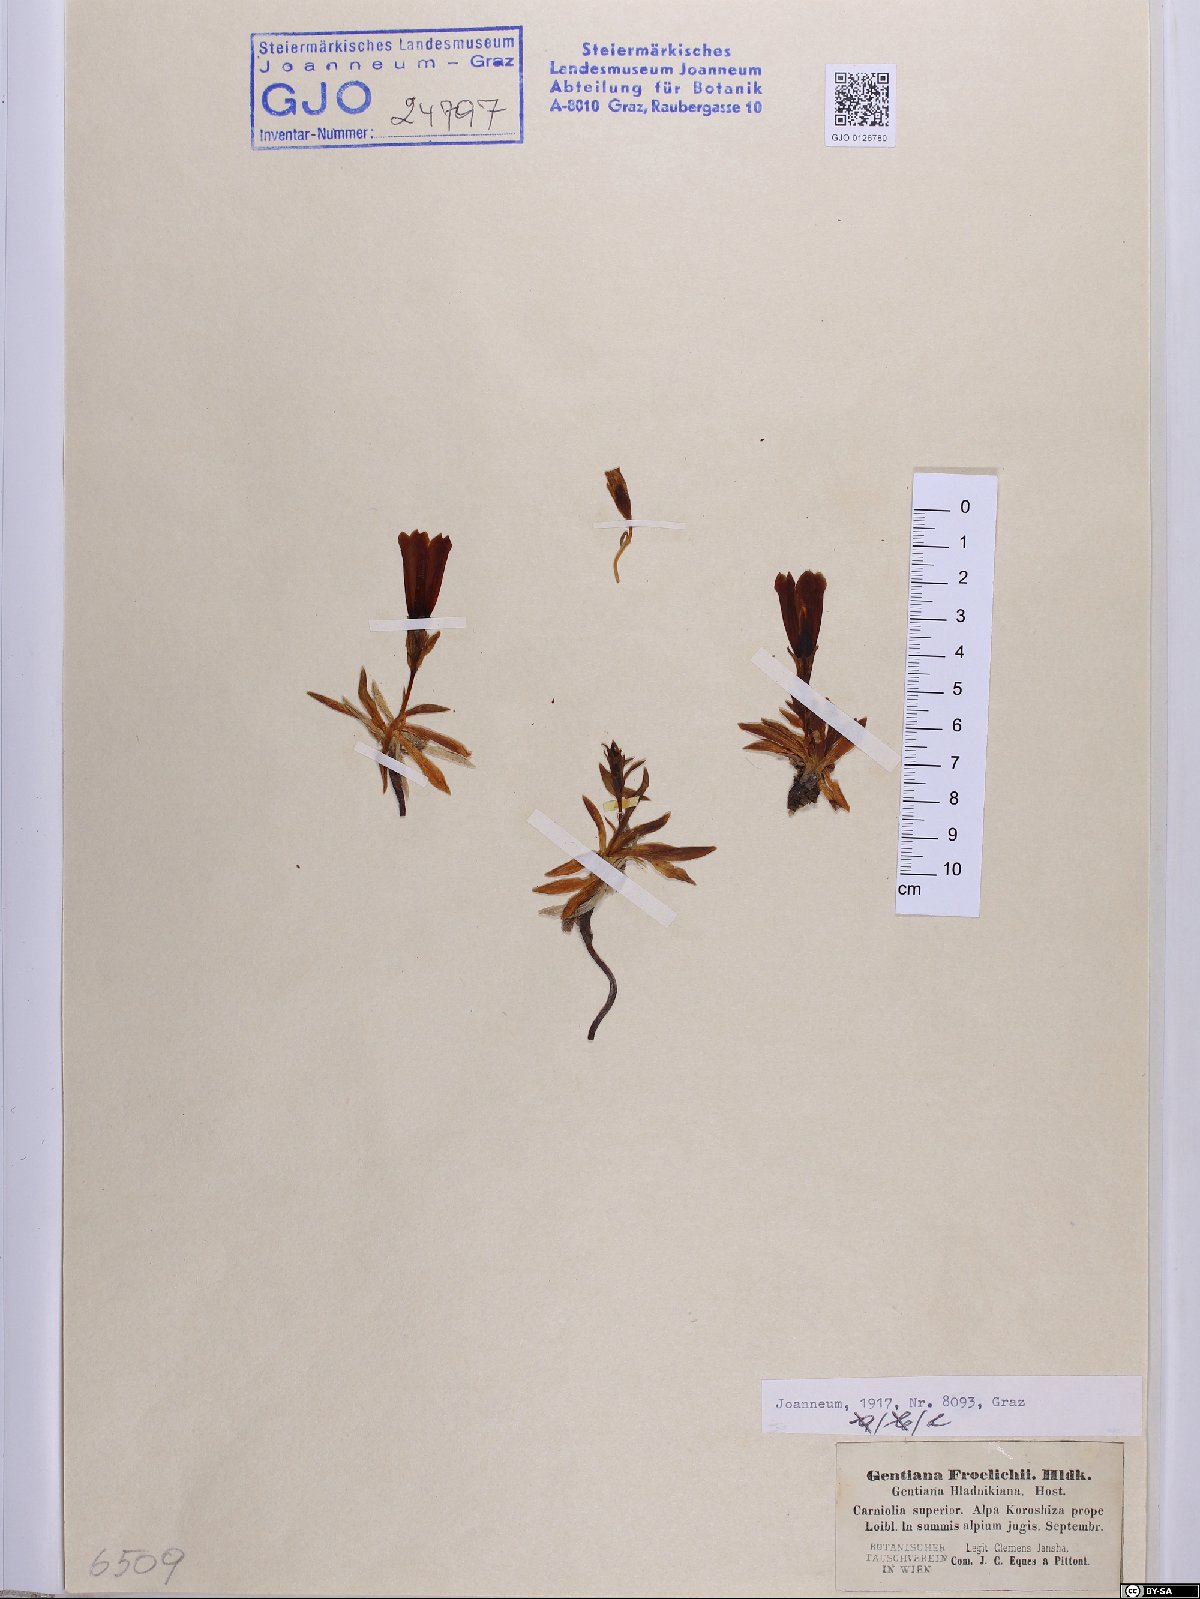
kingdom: Plantae
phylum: Tracheophyta
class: Magnoliopsida
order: Gentianales
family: Gentianaceae
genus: Gentiana
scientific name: Gentiana froelichii
